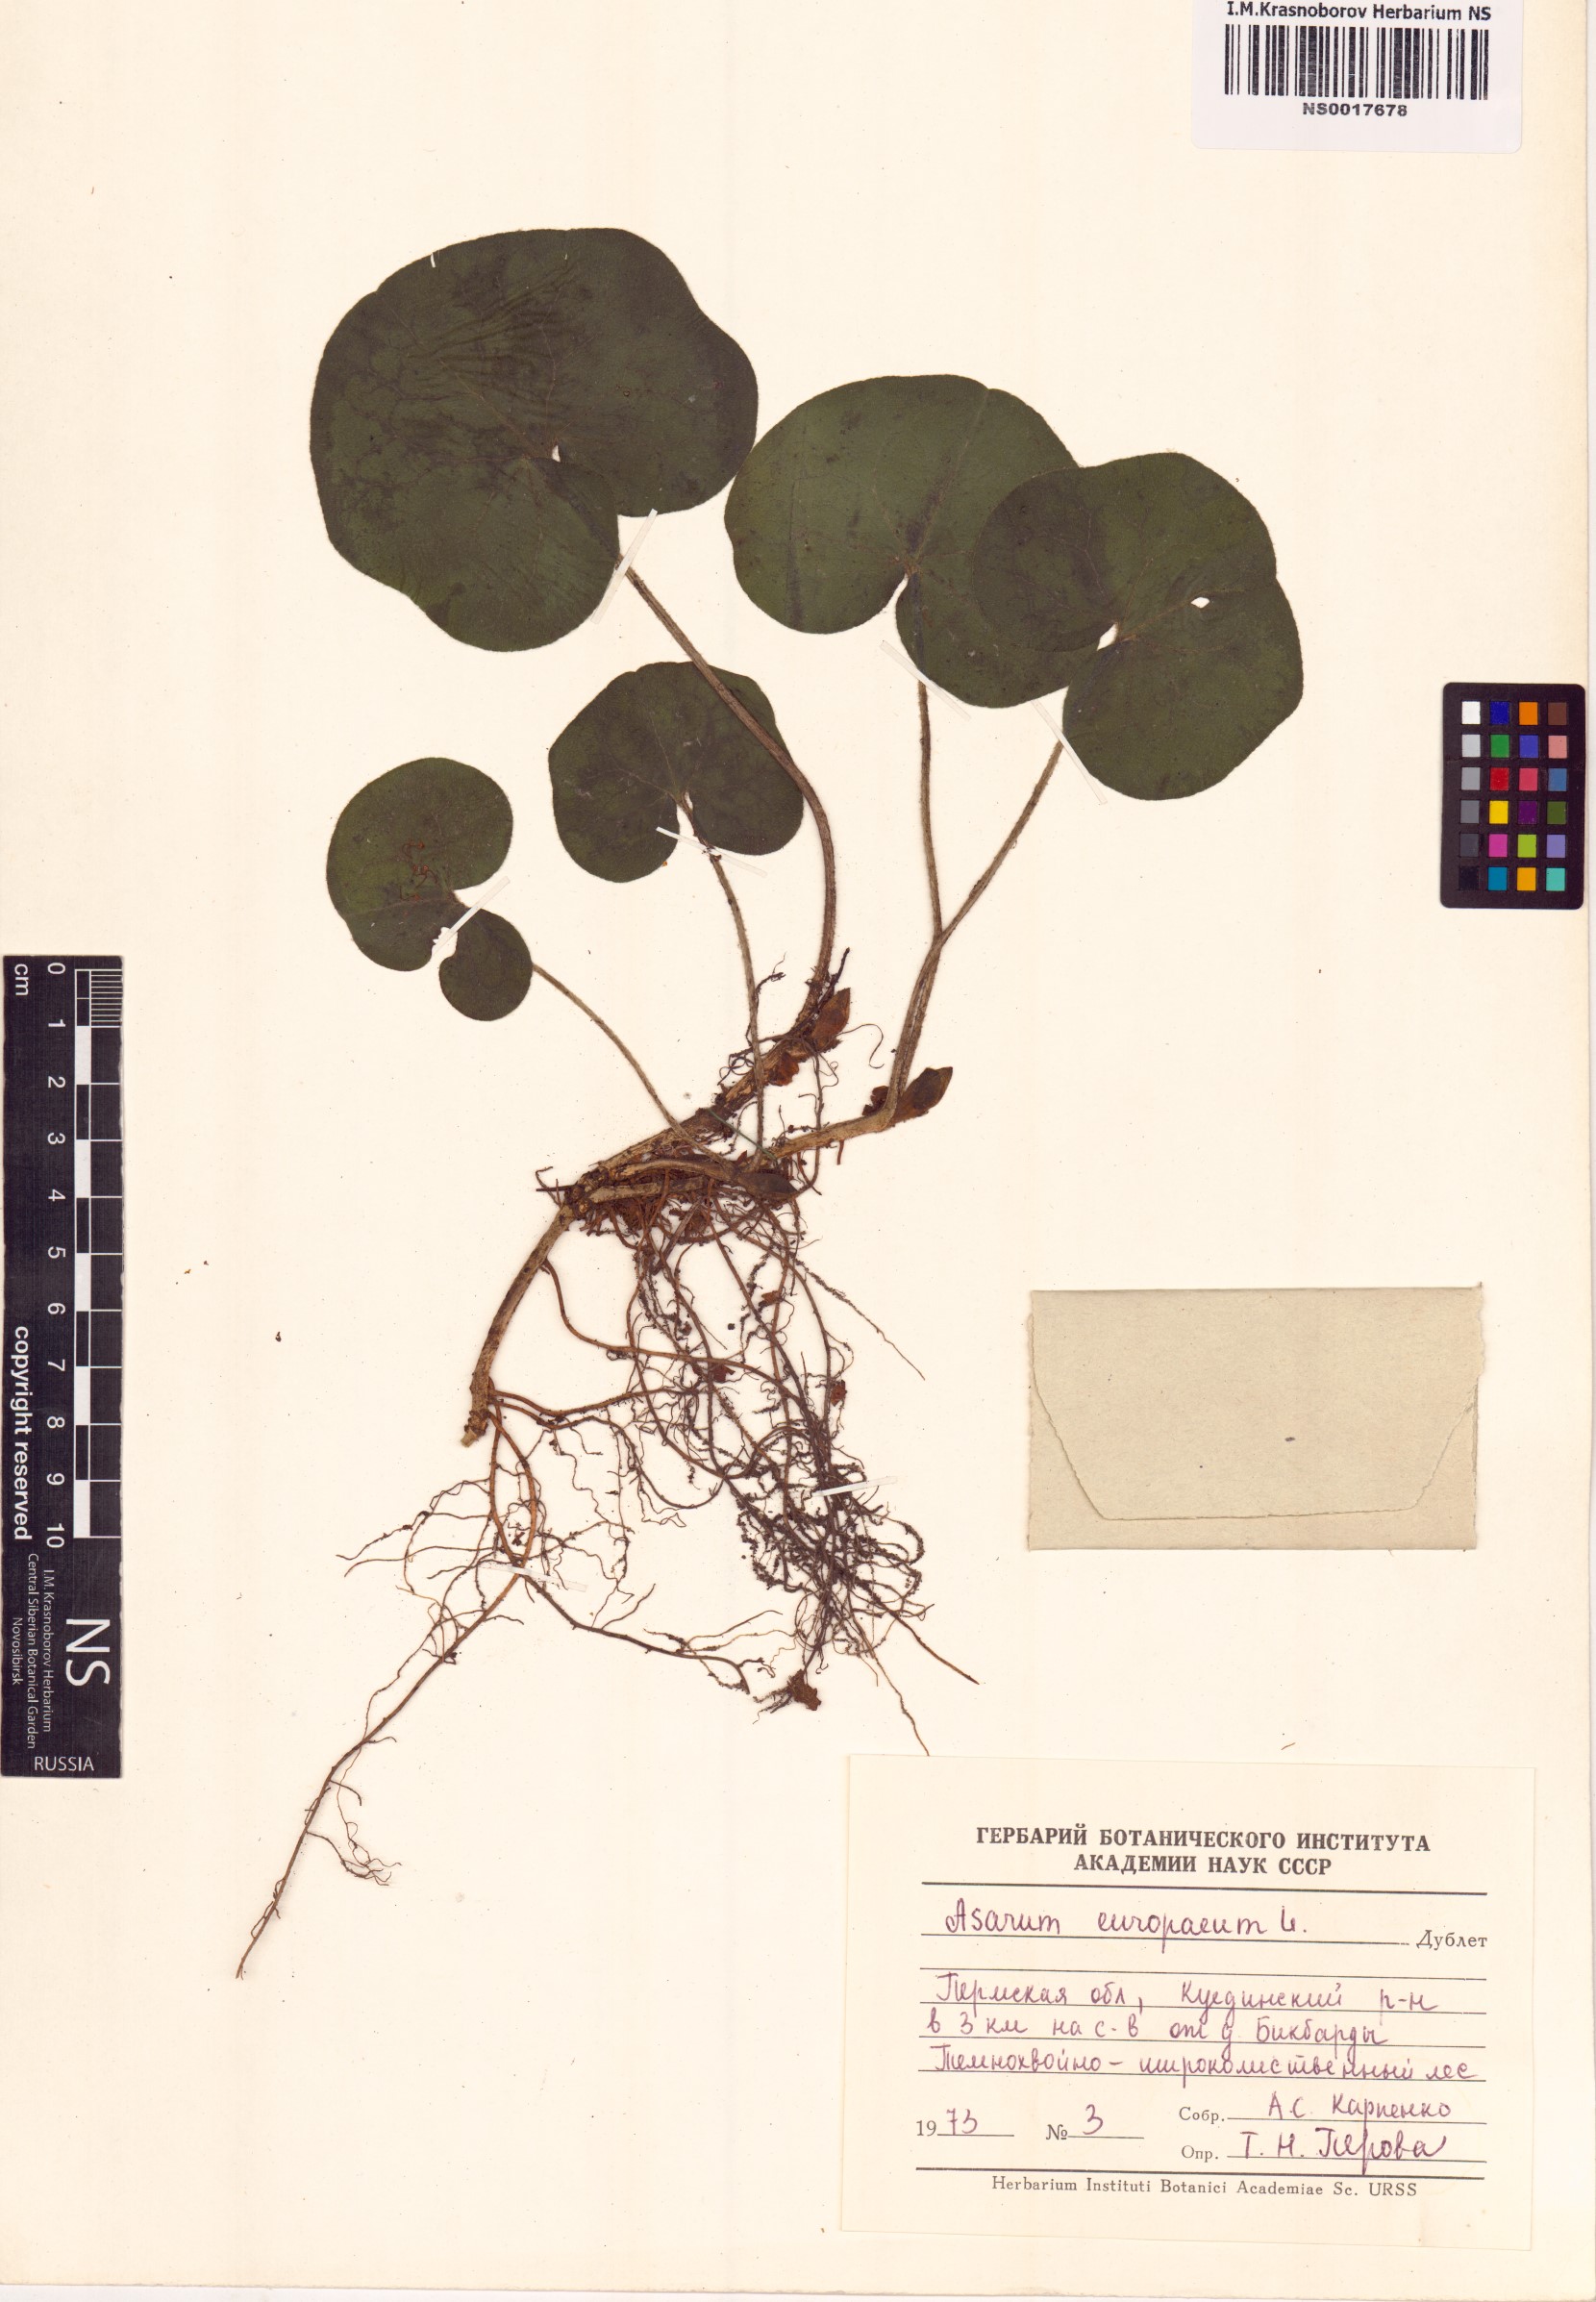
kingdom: Plantae
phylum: Tracheophyta
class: Magnoliopsida
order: Piperales
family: Aristolochiaceae
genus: Asarum
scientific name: Asarum europaeum
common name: Asarabacca
